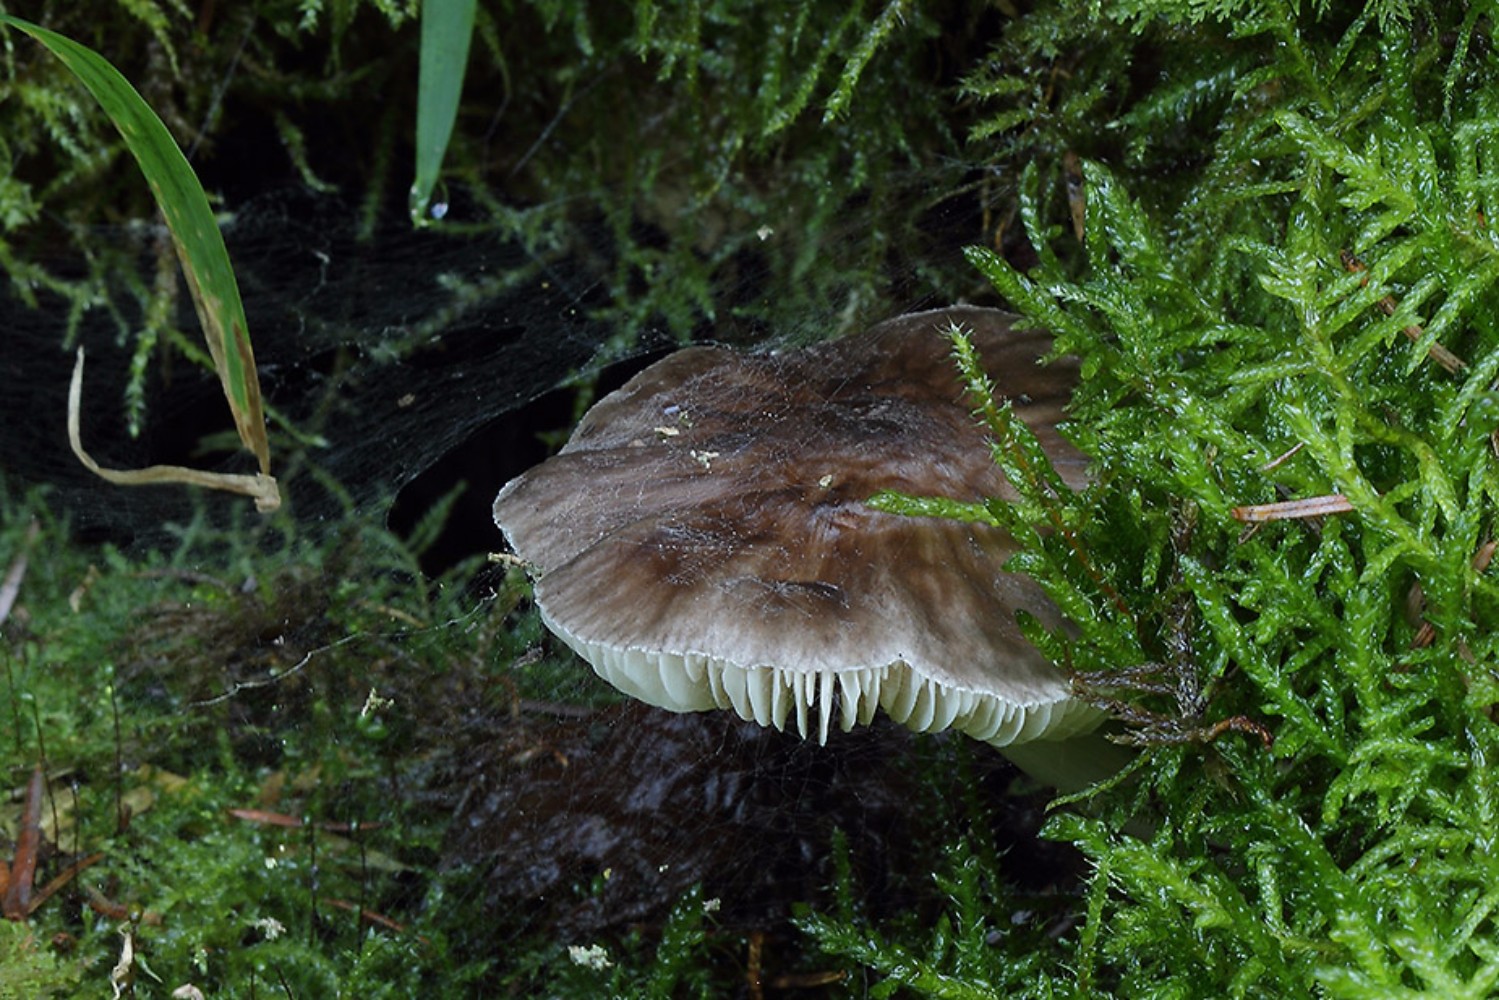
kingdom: Fungi
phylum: Basidiomycota
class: Agaricomycetes
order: Agaricales
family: Pluteaceae
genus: Pluteus
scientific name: Pluteus pouzarianus
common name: plantage-skærmhat
